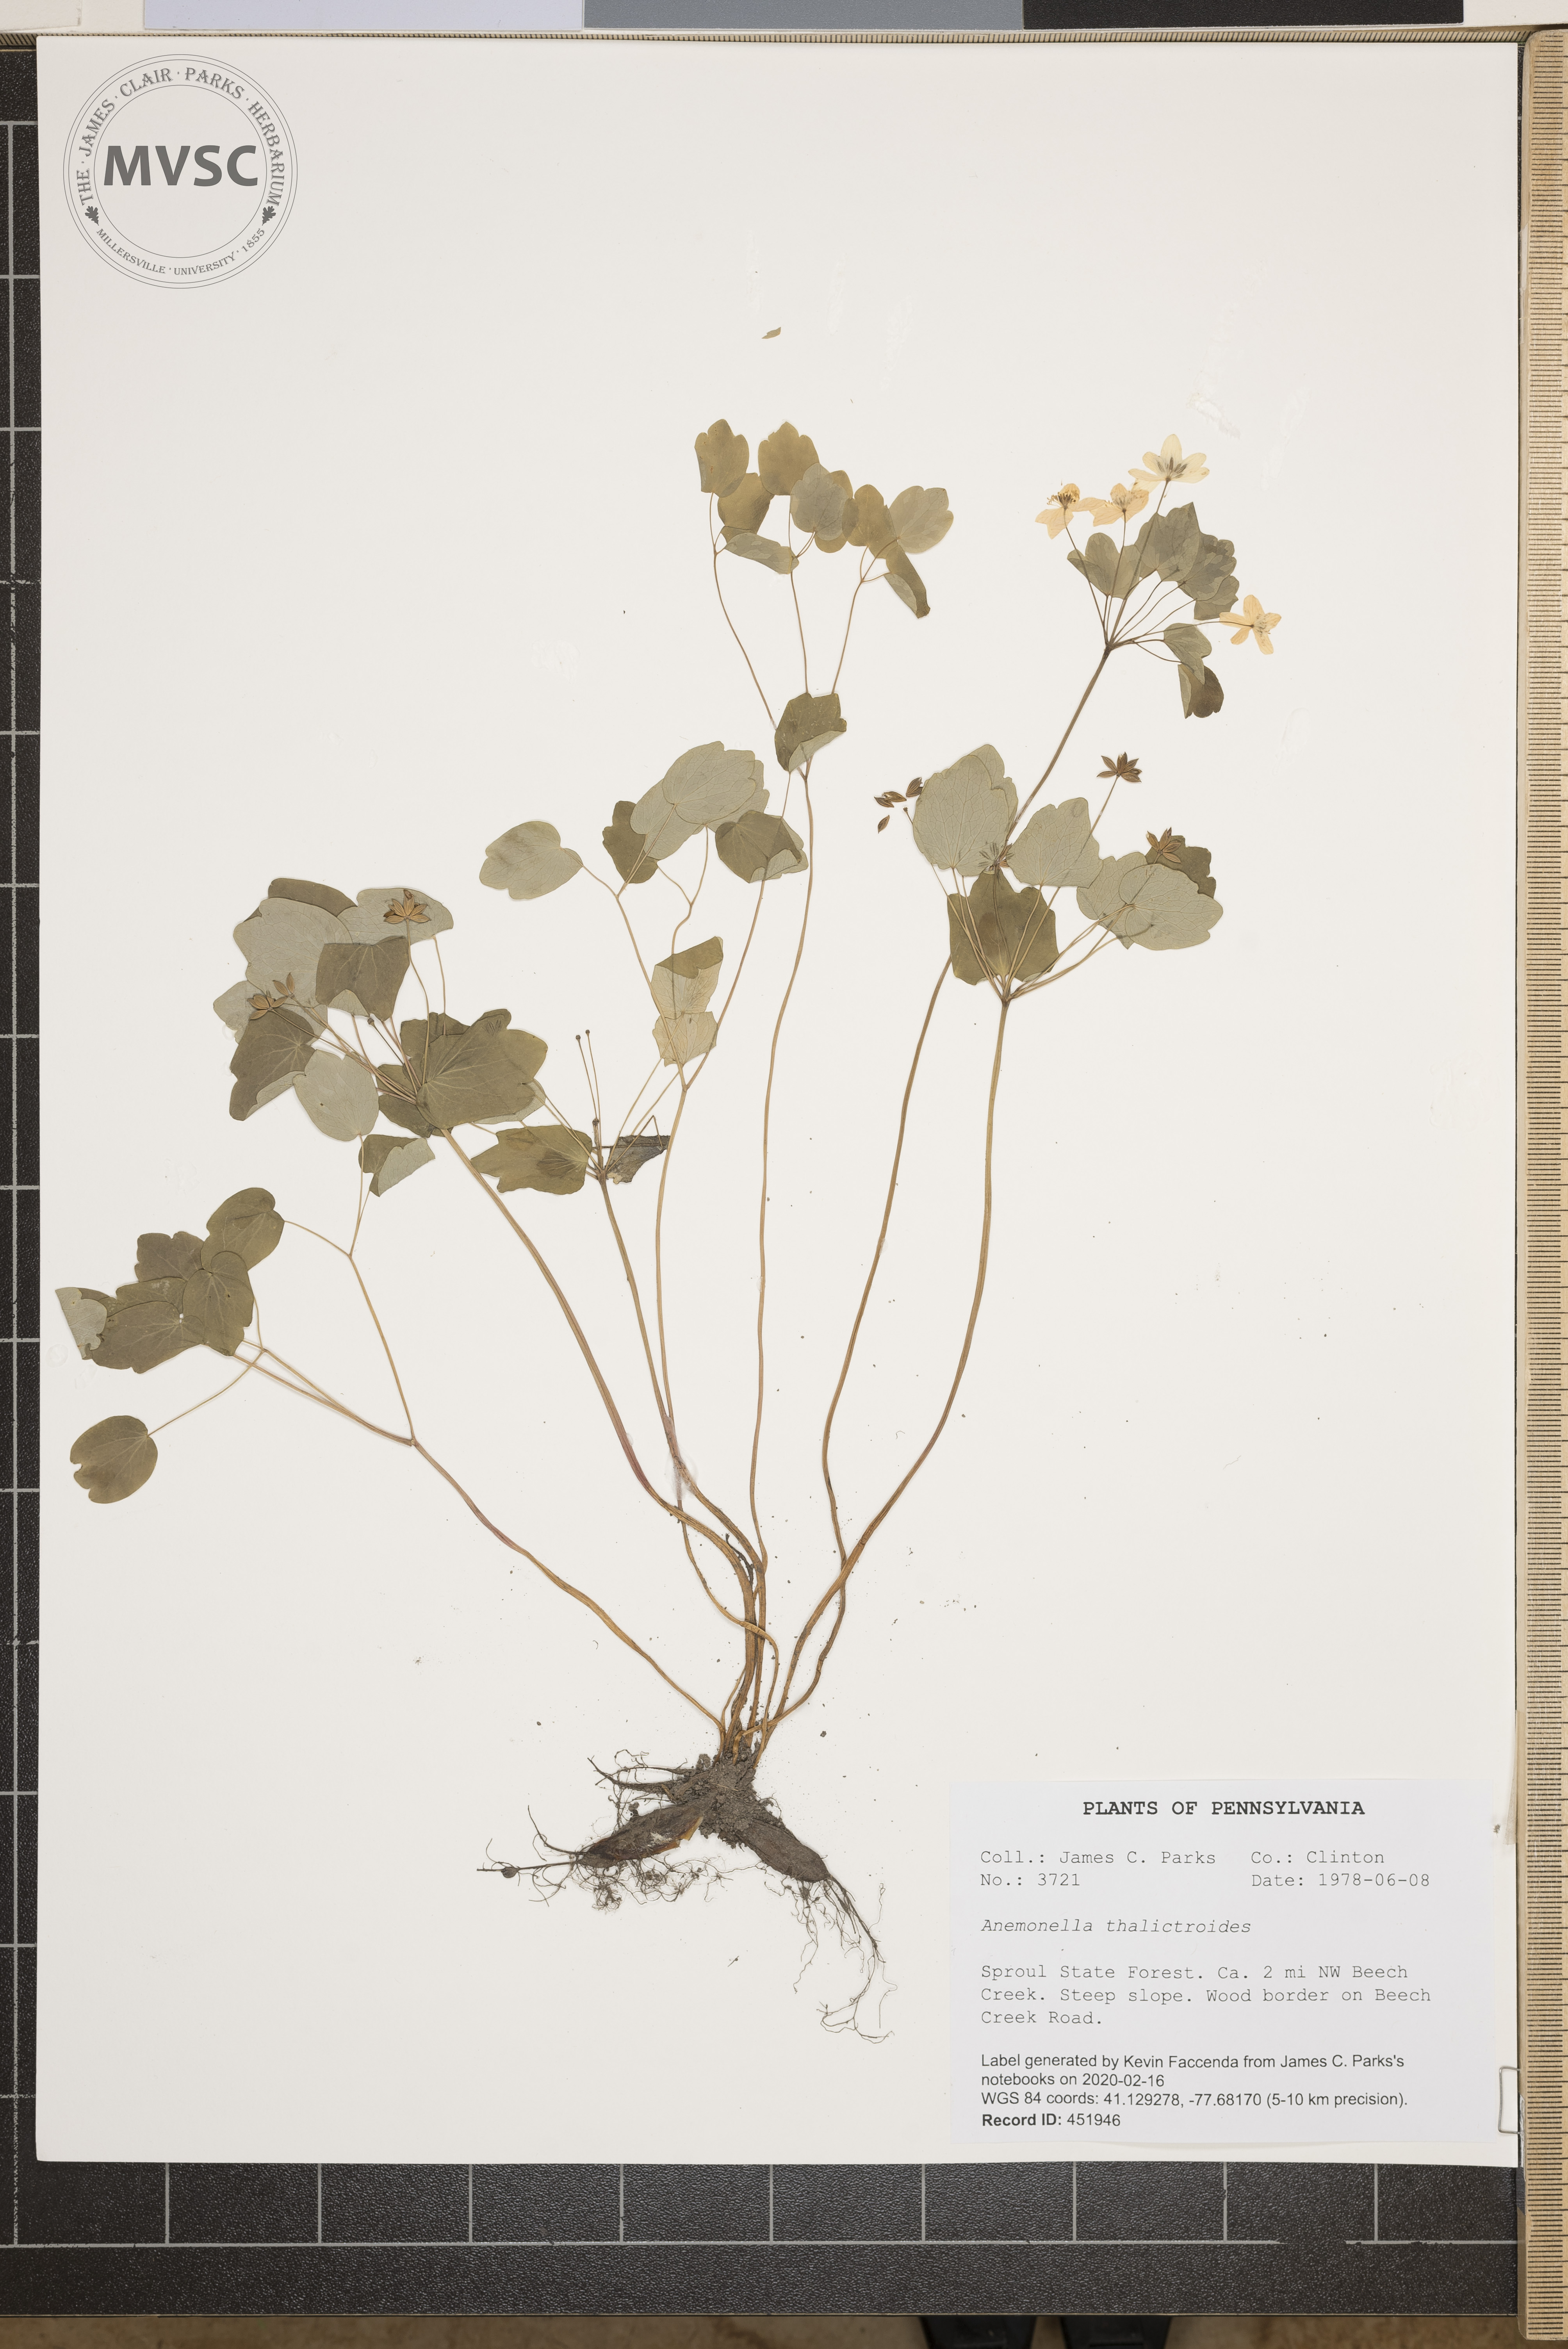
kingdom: Plantae
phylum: Tracheophyta
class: Magnoliopsida
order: Ranunculales
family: Ranunculaceae
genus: Thalictrum
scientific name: Thalictrum thalictroides
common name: Rue-anemone
